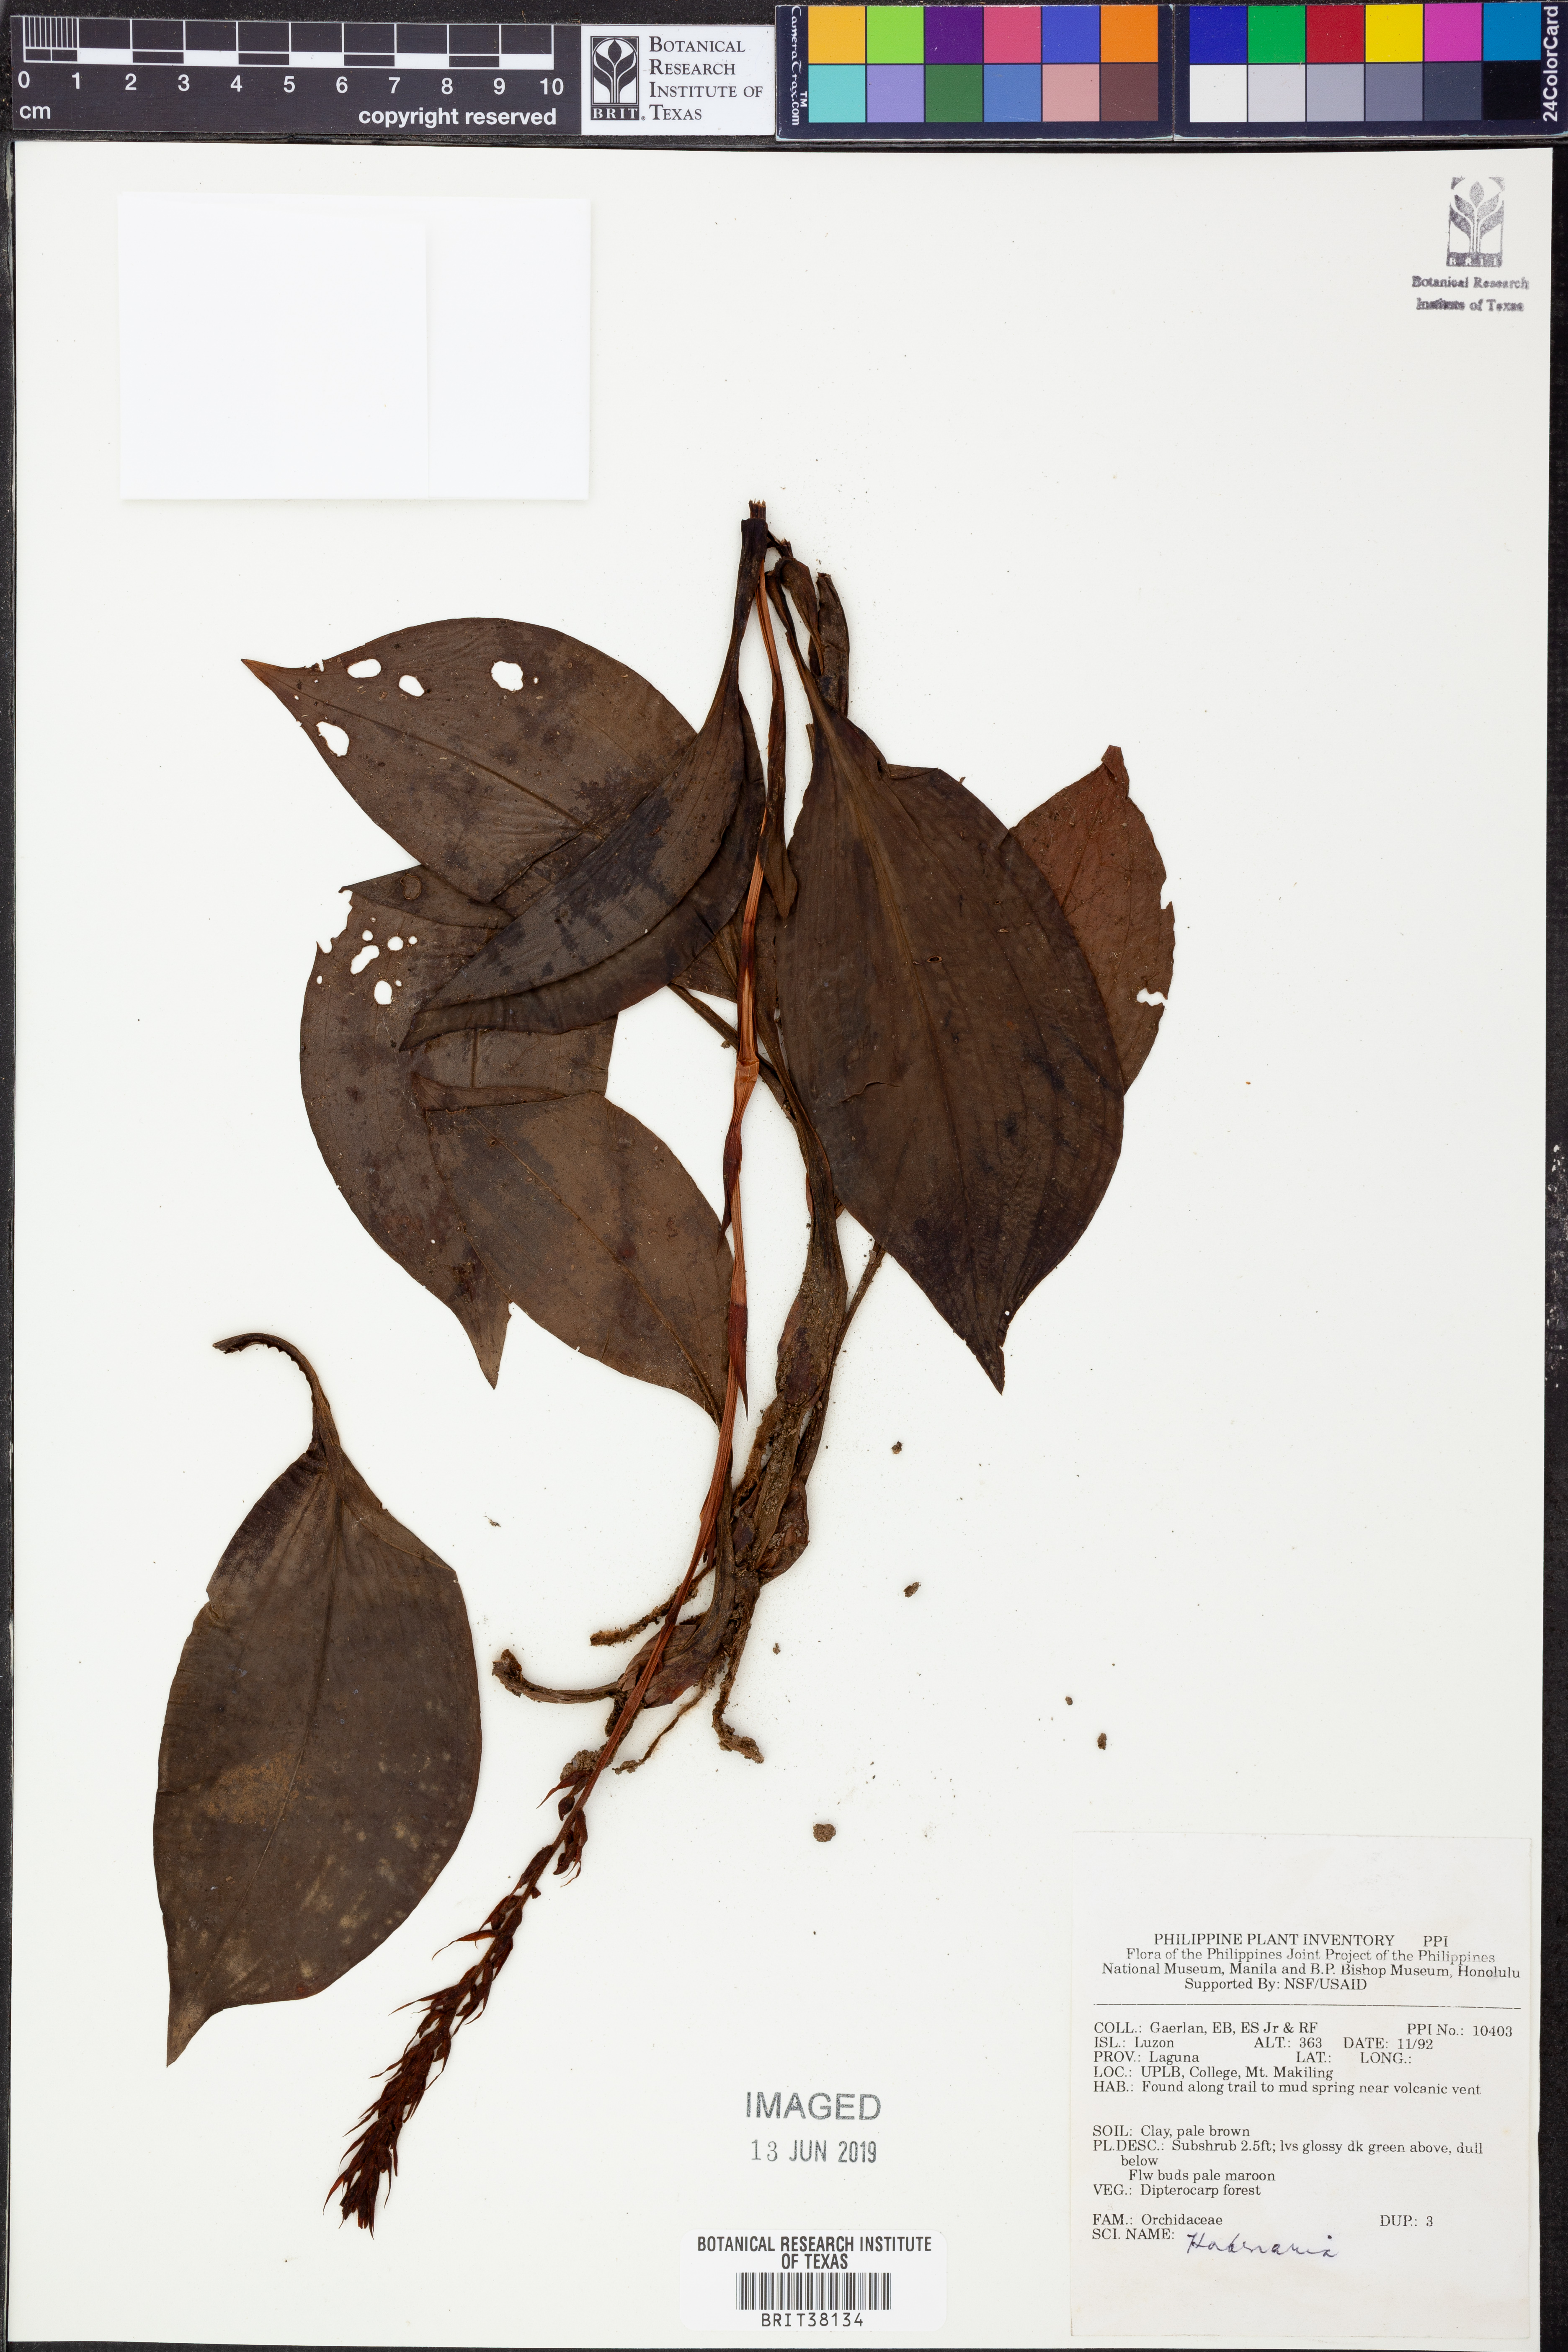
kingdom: Plantae
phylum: Tracheophyta
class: Liliopsida
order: Asparagales
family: Orchidaceae
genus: Habenaria
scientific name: Habenaria
